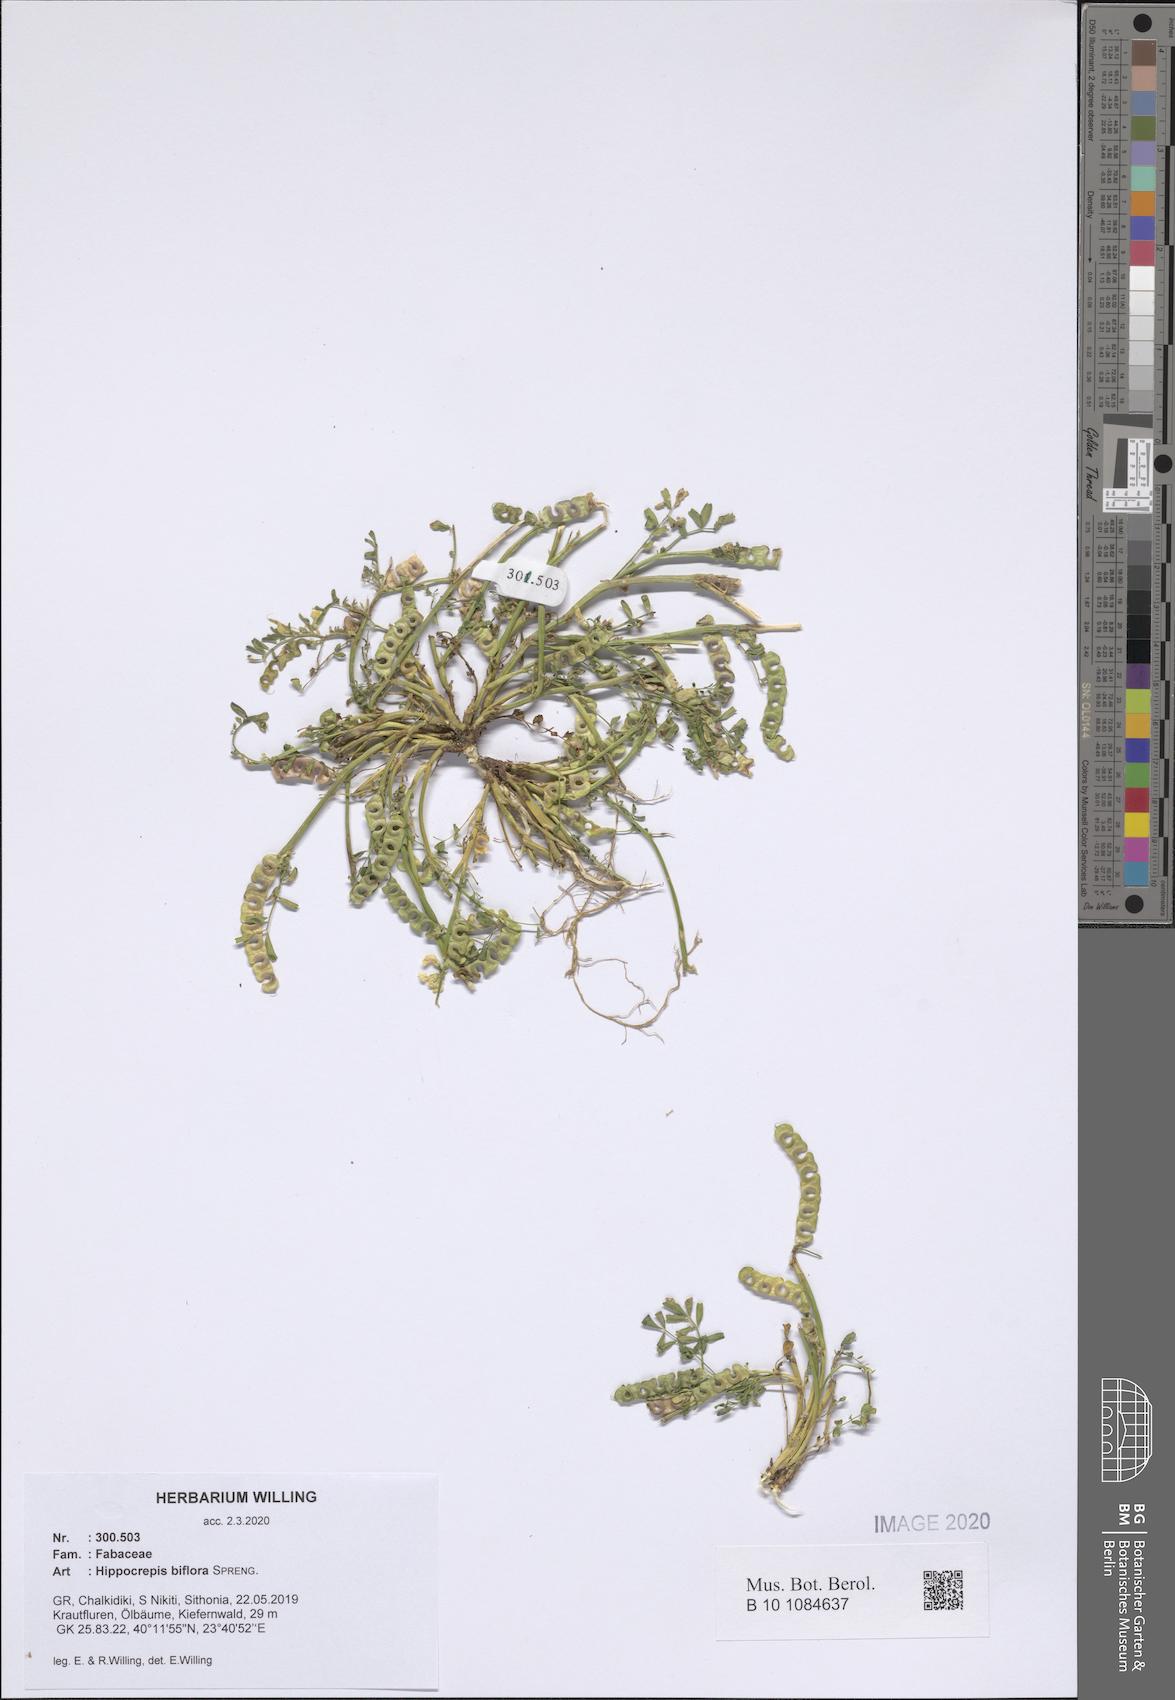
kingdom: Plantae
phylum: Tracheophyta
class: Magnoliopsida
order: Fabales
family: Fabaceae
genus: Hippocrepis
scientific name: Hippocrepis biflora
